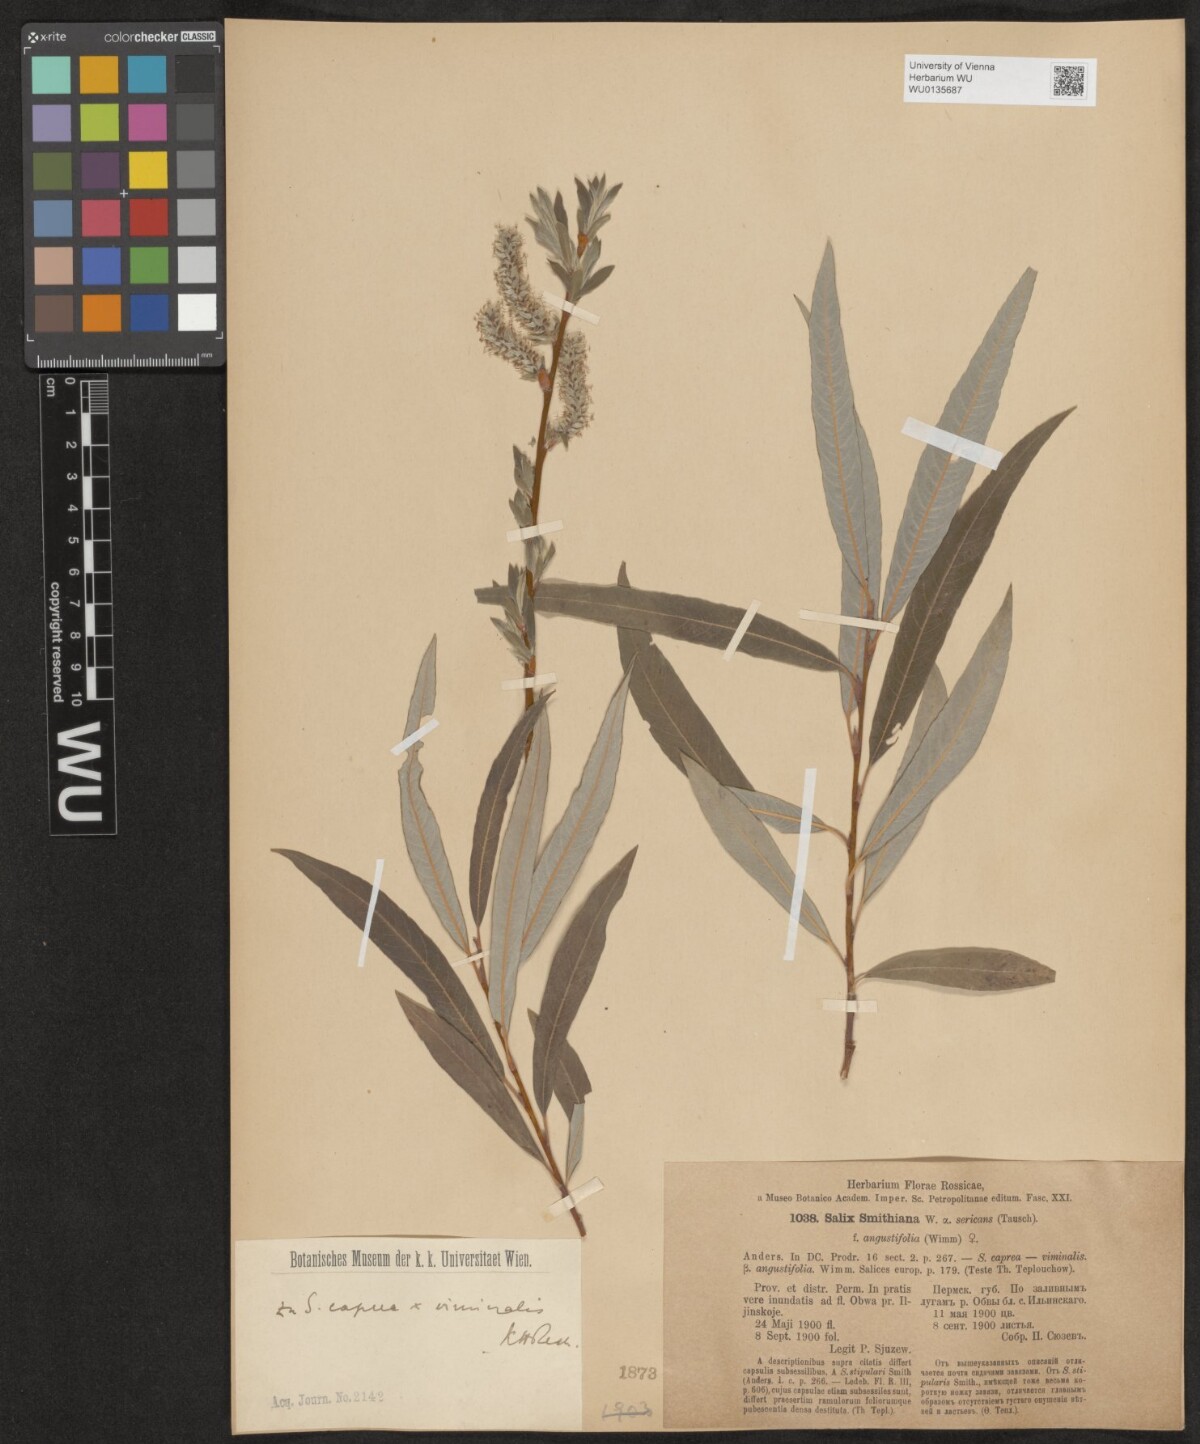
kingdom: Plantae
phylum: Tracheophyta
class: Magnoliopsida
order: Malpighiales
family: Salicaceae
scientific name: Salicaceae
